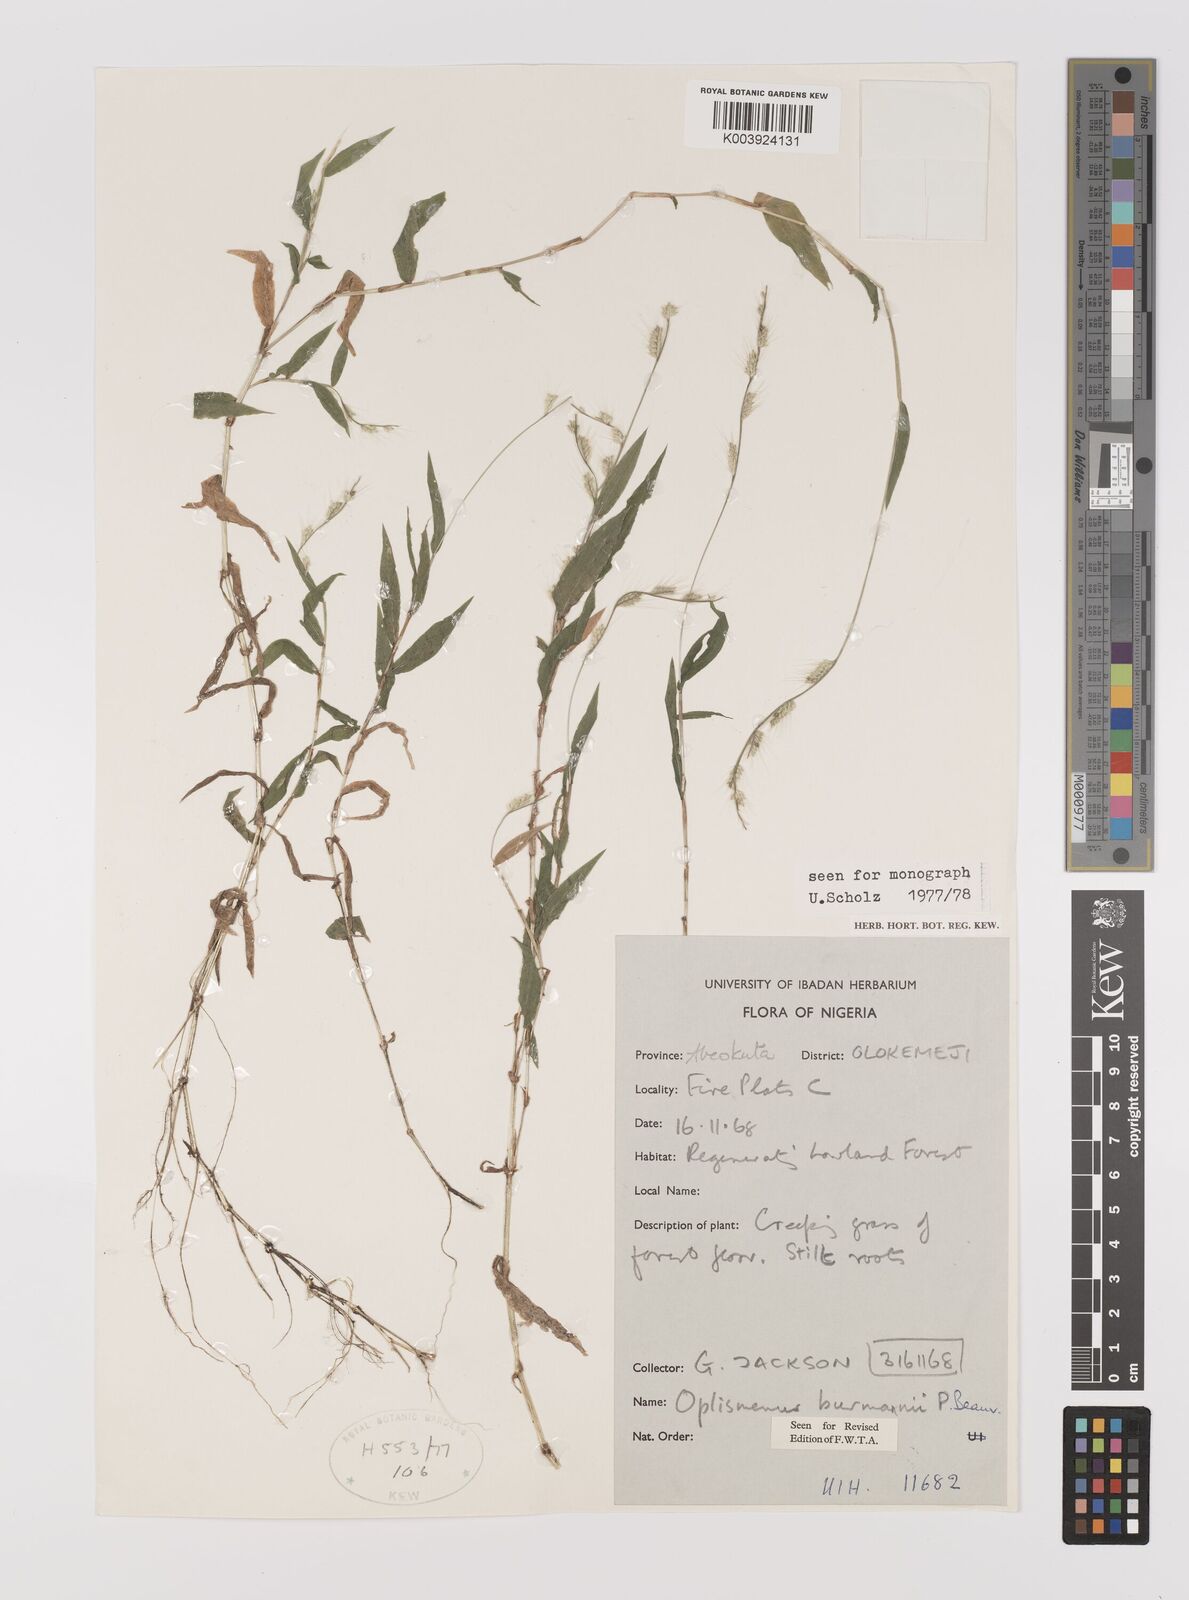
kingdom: Plantae
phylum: Tracheophyta
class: Liliopsida
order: Poales
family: Poaceae
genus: Oplismenus
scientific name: Oplismenus burmanni
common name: Burmann's basketgrass
